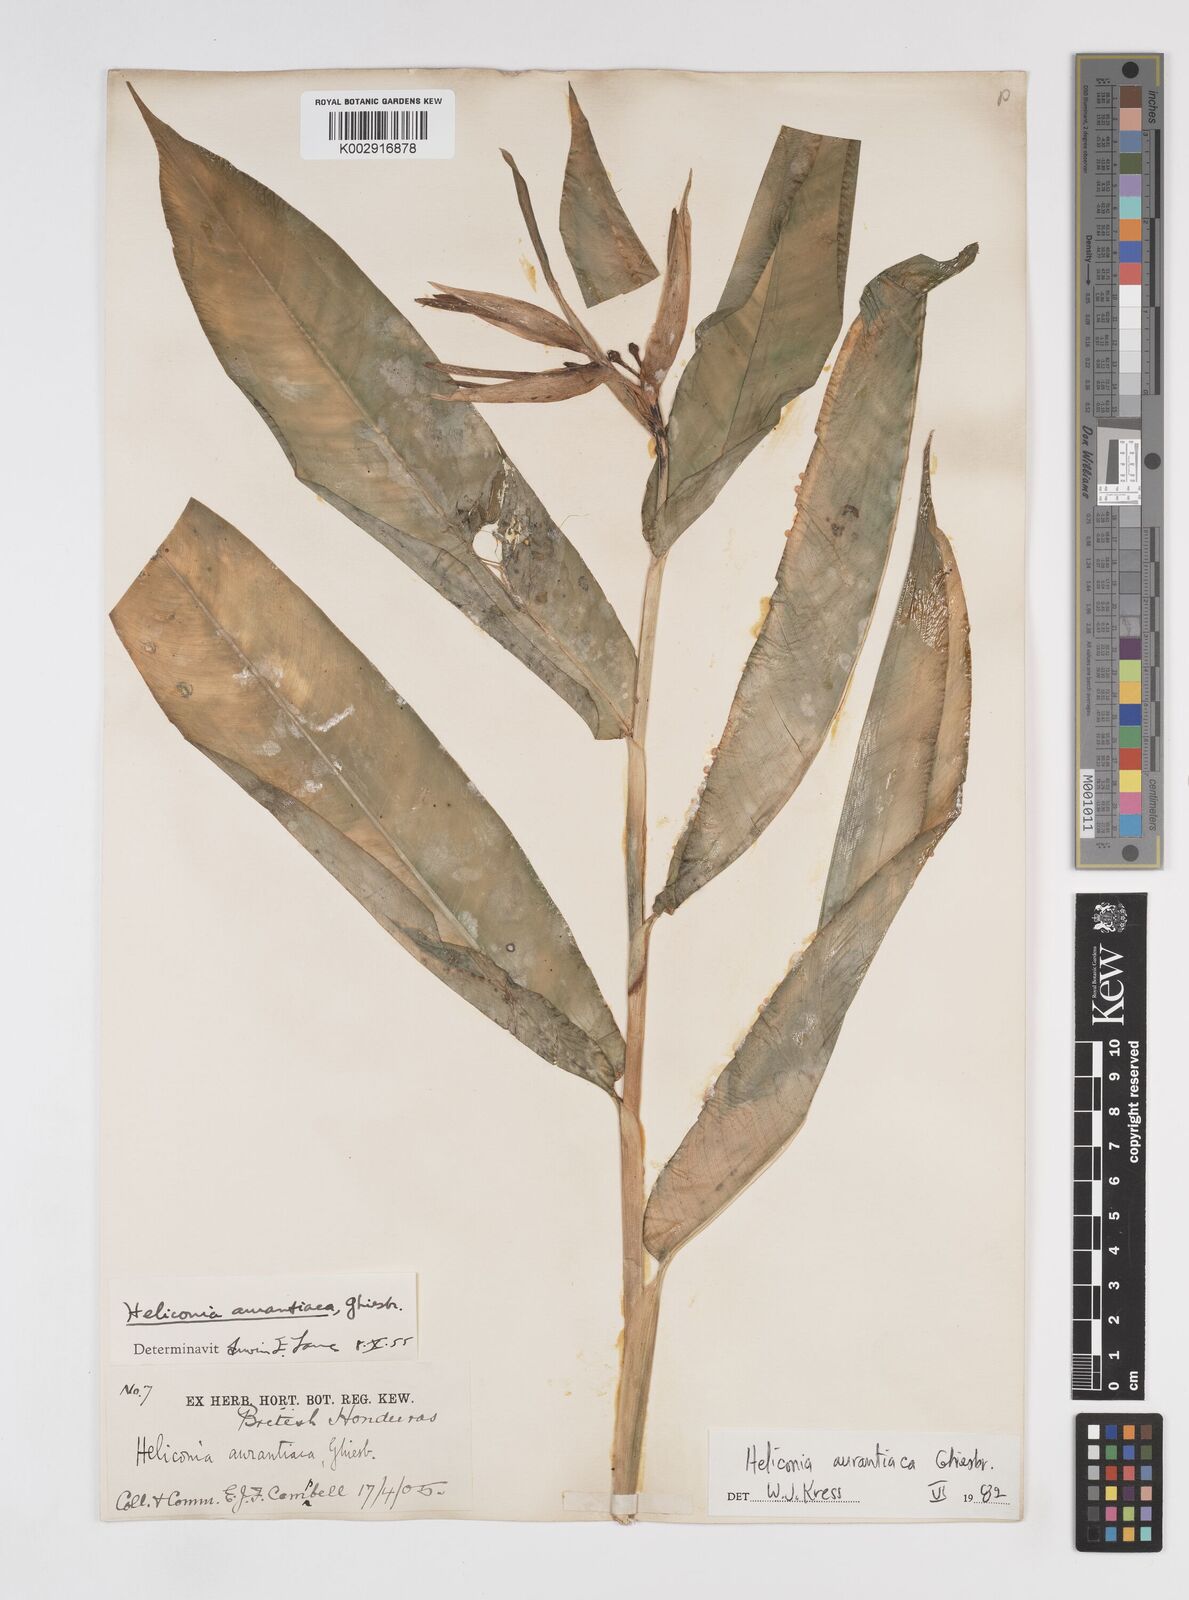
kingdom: Plantae
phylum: Tracheophyta
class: Liliopsida
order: Zingiberales
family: Heliconiaceae
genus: Heliconia
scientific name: Heliconia aurantiaca
